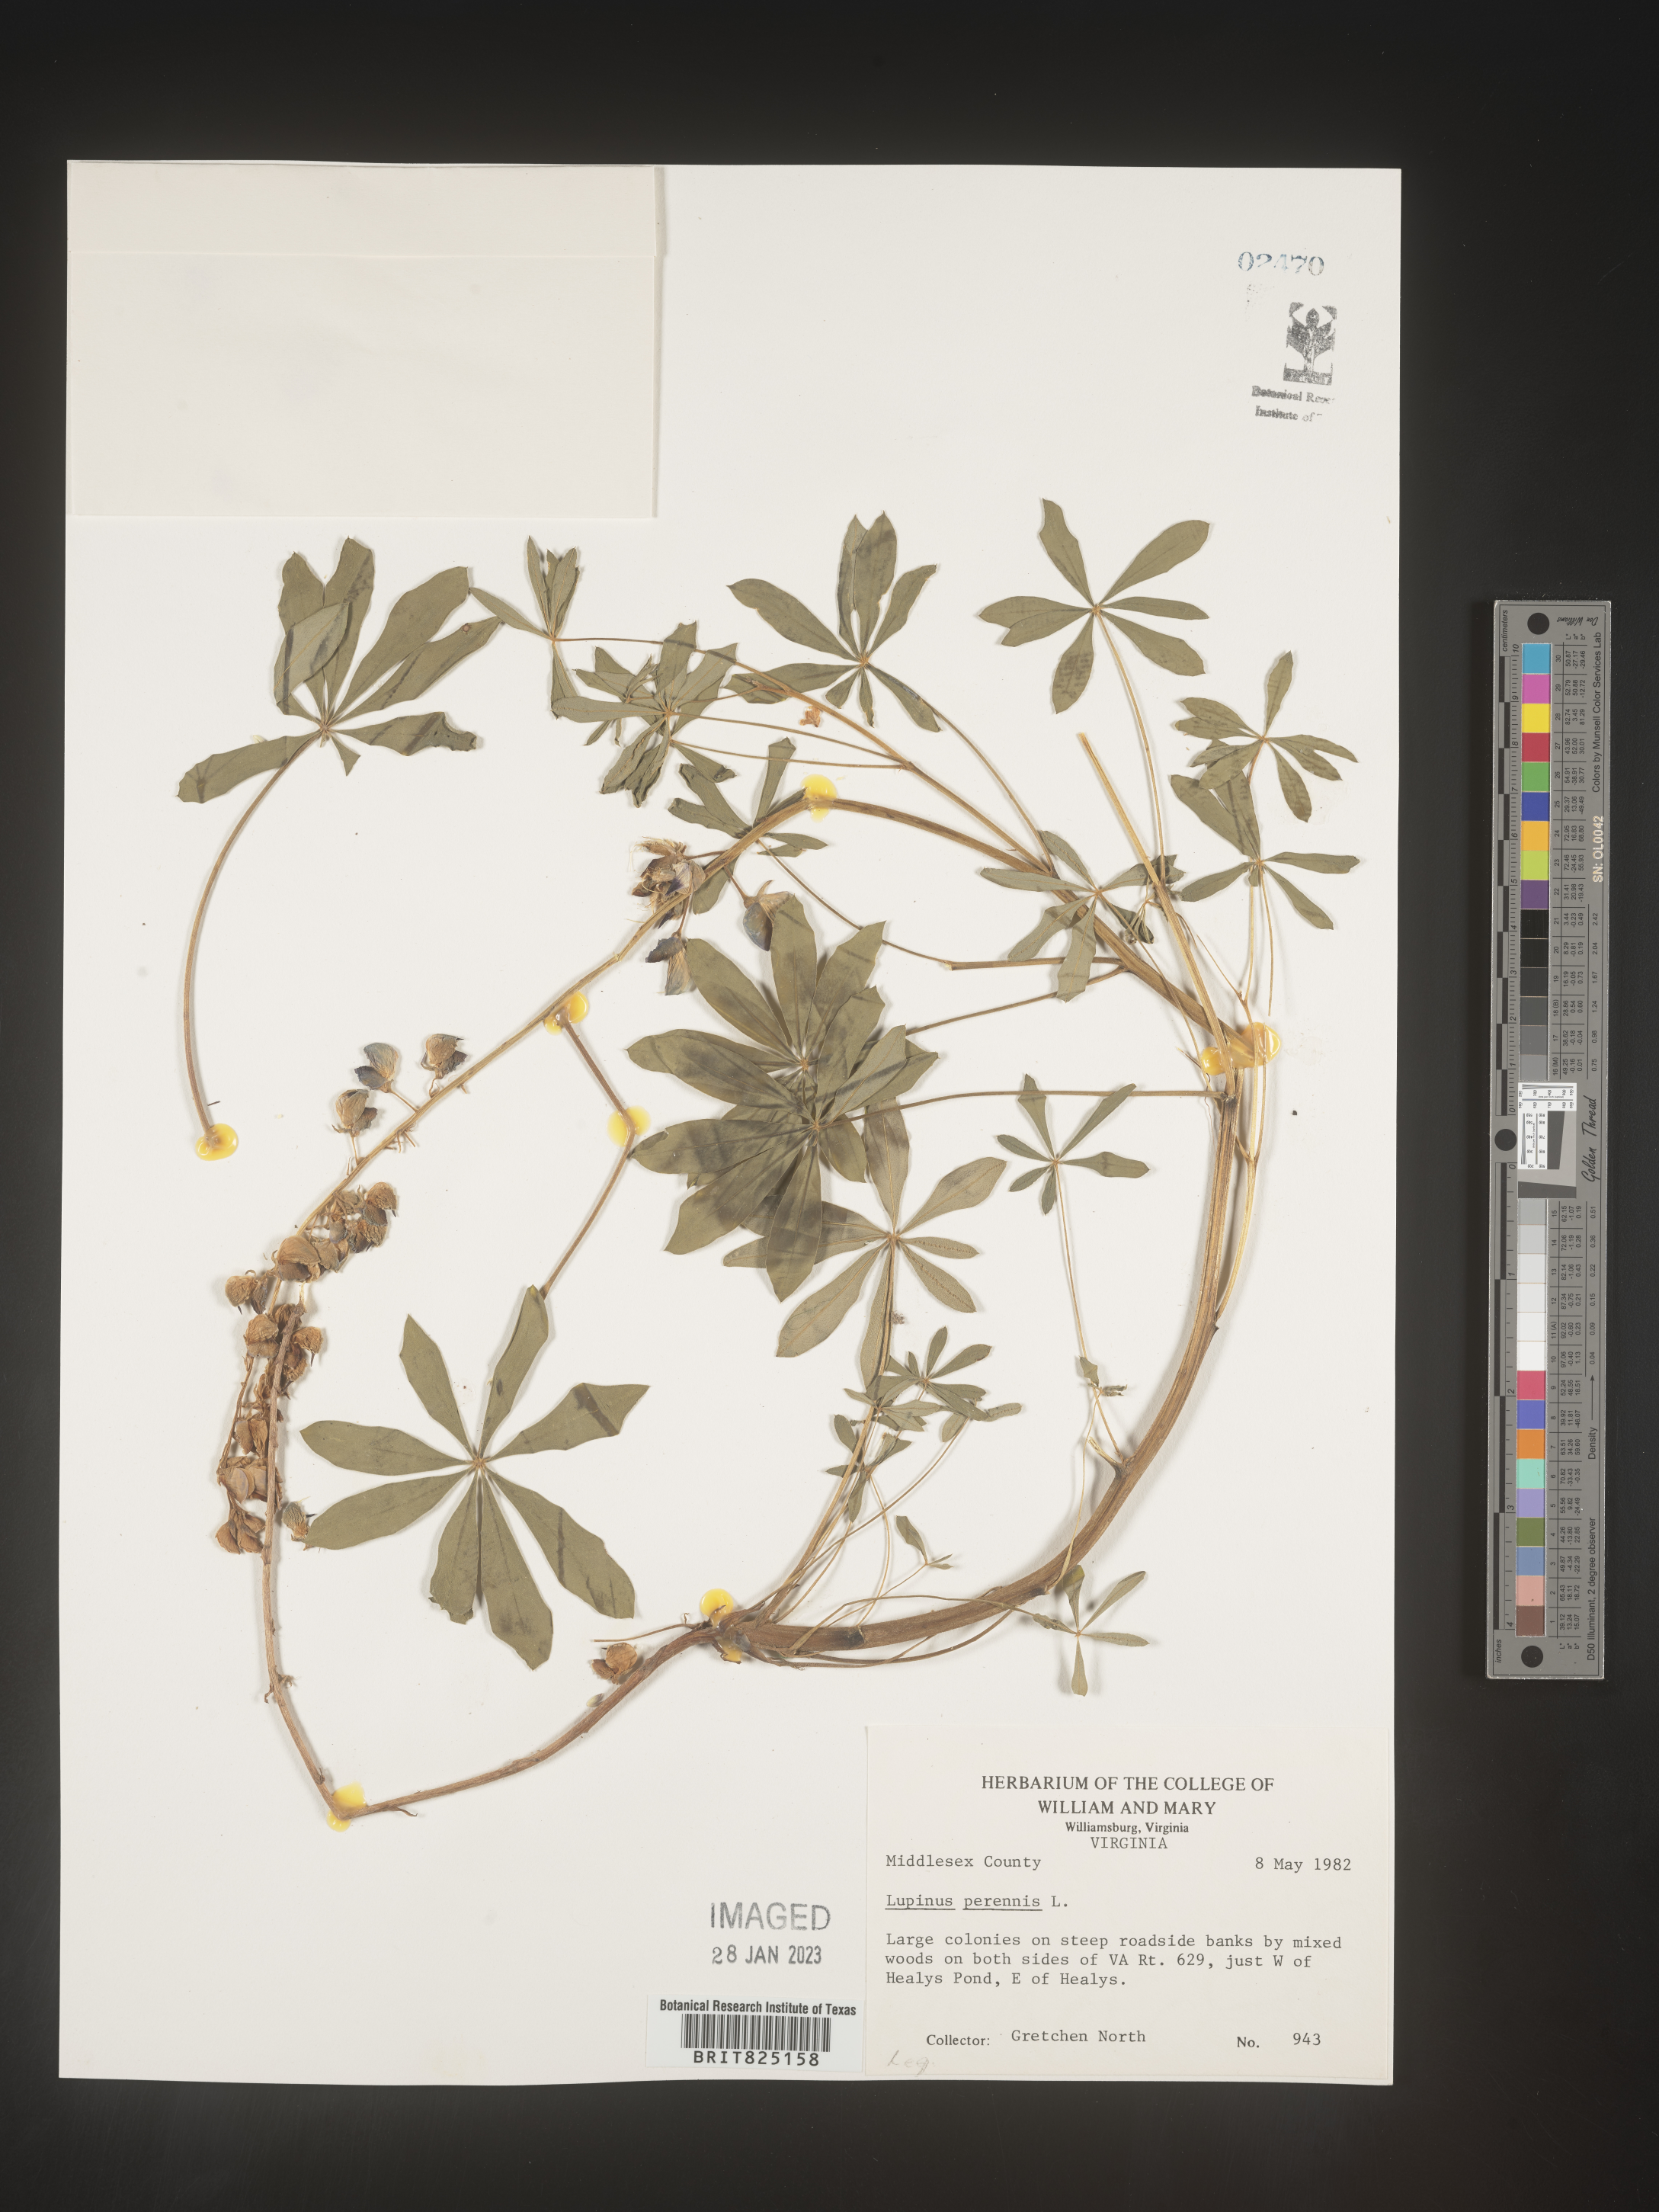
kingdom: Plantae
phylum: Tracheophyta
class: Magnoliopsida
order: Fabales
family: Fabaceae
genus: Lupinus
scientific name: Lupinus perennis
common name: Sundial lupine
